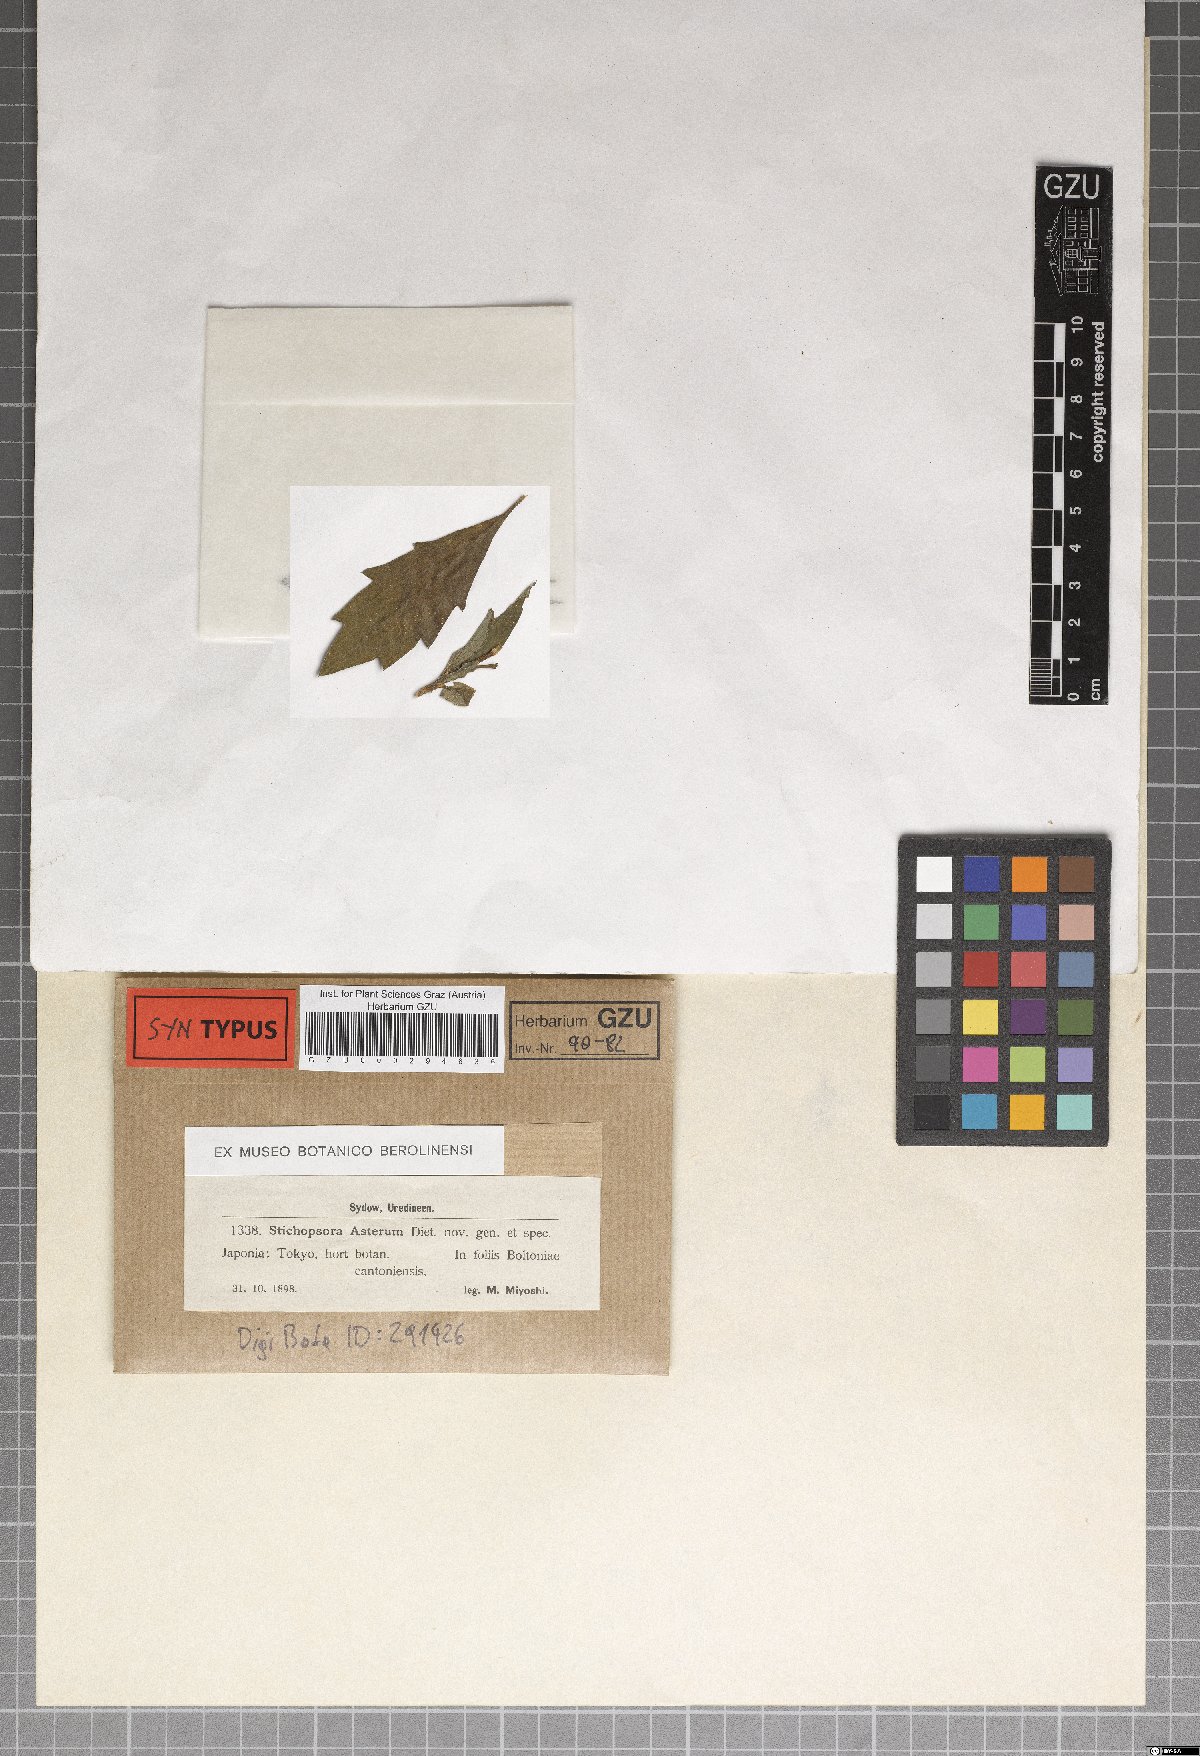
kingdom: Fungi
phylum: Basidiomycota
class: Pucciniomycetes
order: Pucciniales
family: Coleosporiaceae
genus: Coleosporium
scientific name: Coleosporium asterum
